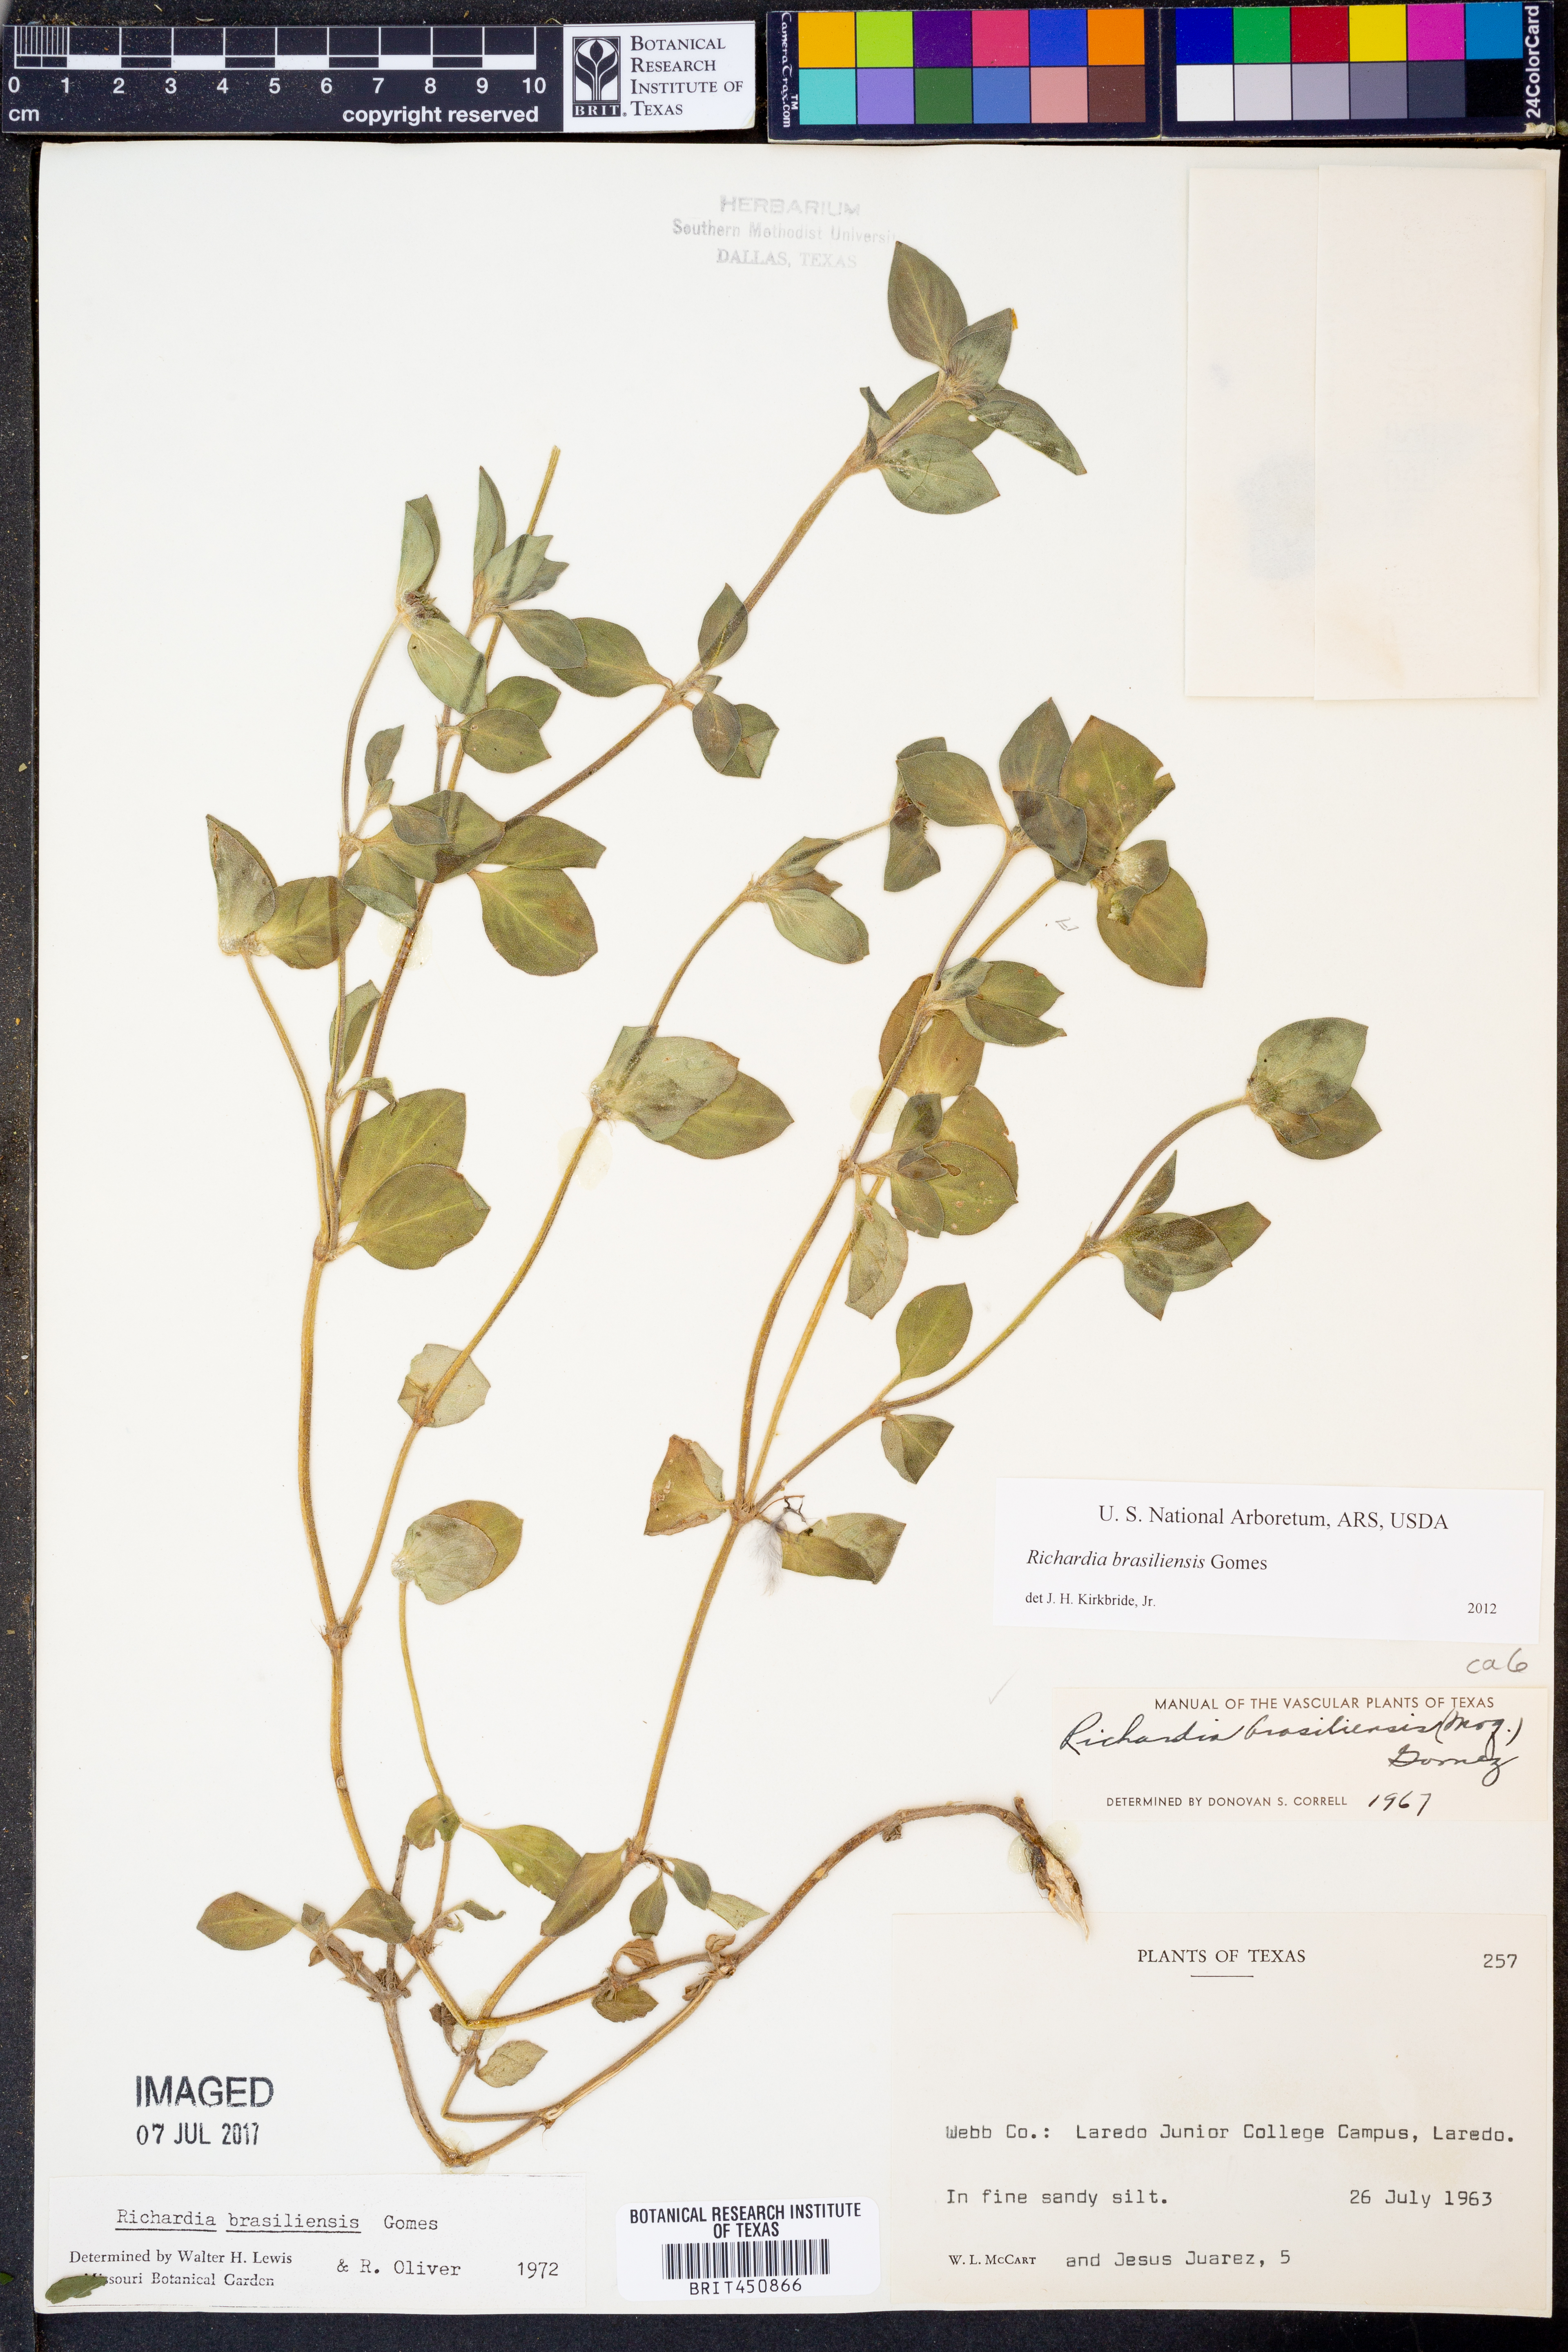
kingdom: Plantae
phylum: Tracheophyta
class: Magnoliopsida
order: Gentianales
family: Rubiaceae
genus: Richardia
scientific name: Richardia brasiliensis
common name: Tropical mexican clover
